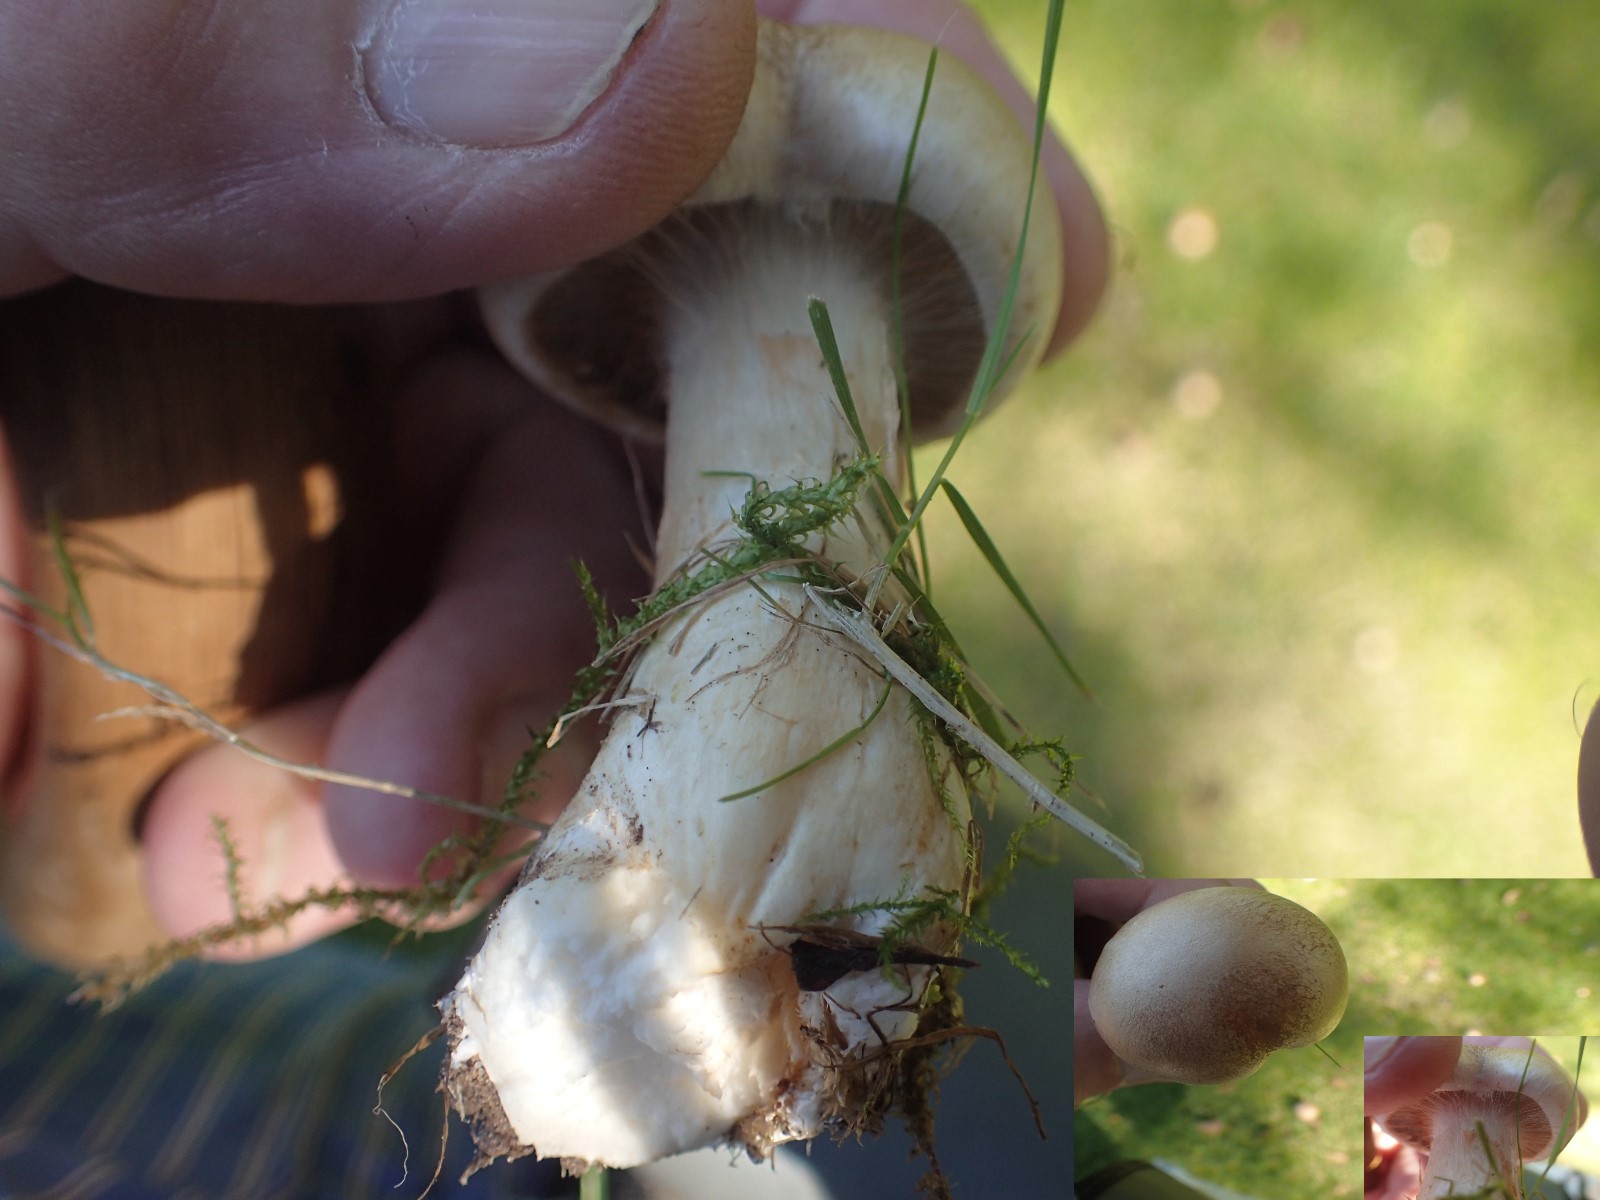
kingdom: Fungi
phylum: Basidiomycota
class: Agaricomycetes
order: Agaricales
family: Cortinariaceae
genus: Cortinarius
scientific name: Cortinarius largus
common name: violetrandet slørhat
